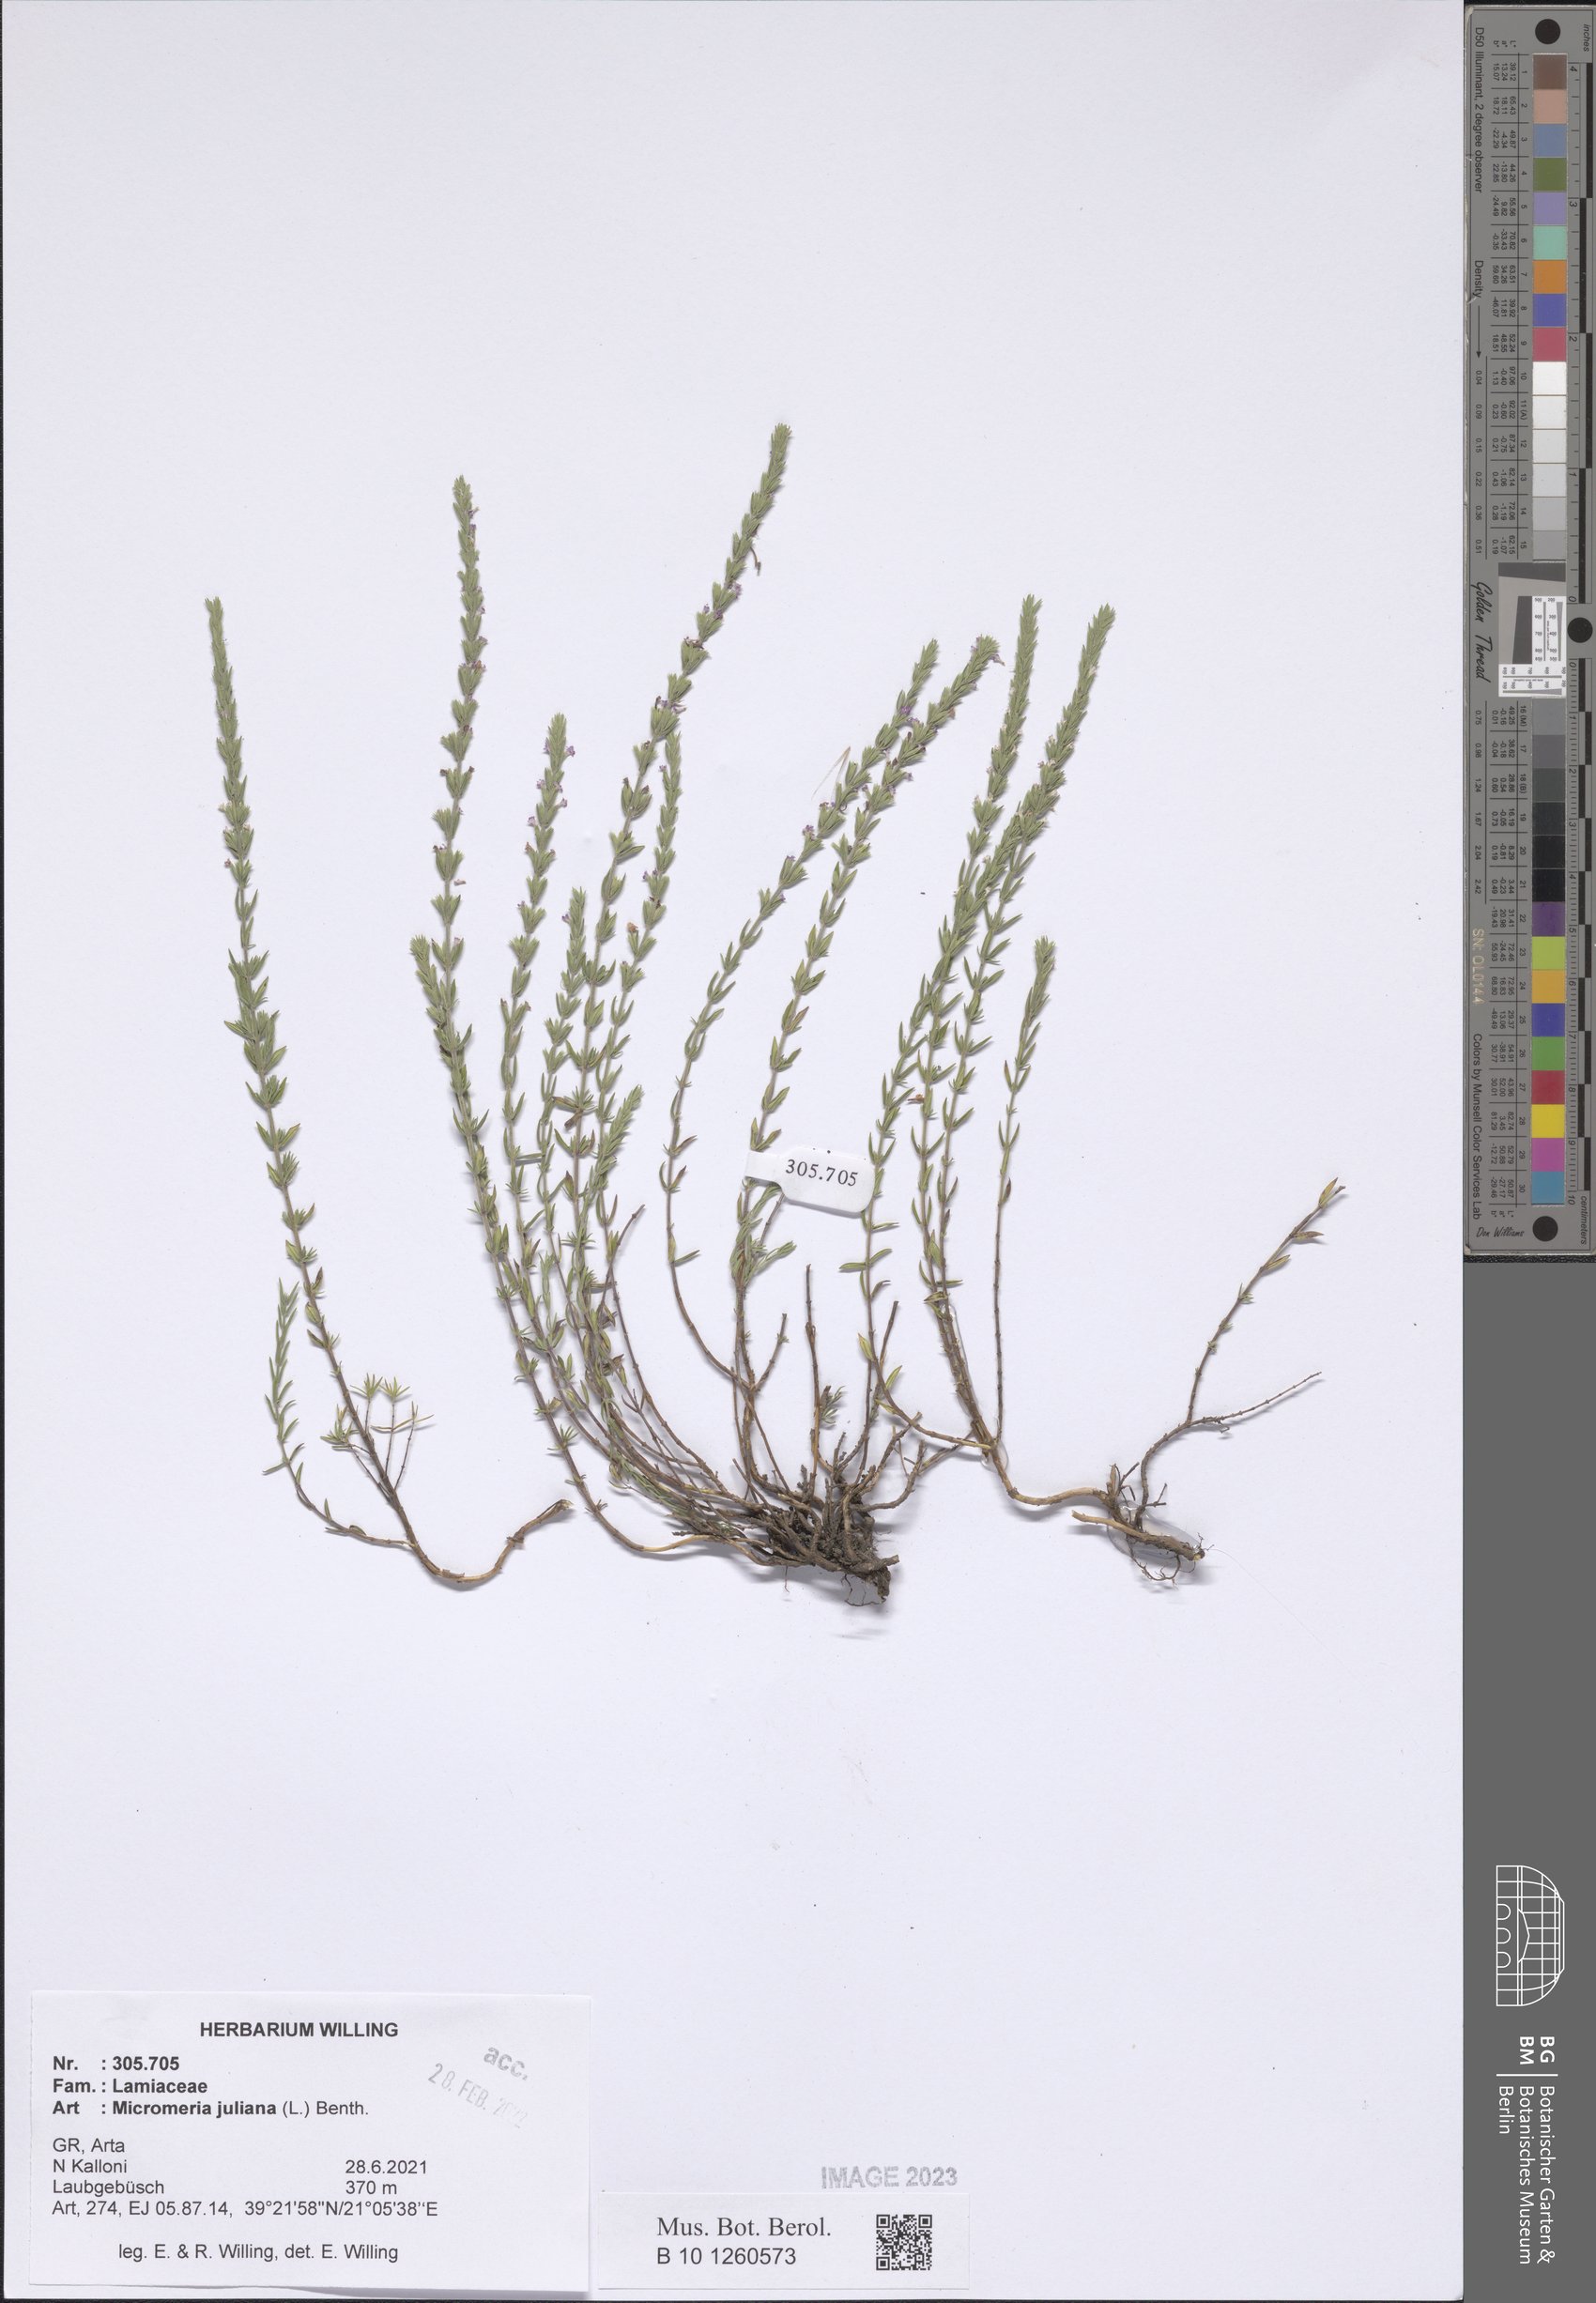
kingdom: Plantae
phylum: Tracheophyta
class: Magnoliopsida
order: Lamiales
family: Lamiaceae
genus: Micromeria
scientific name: Micromeria juliana
